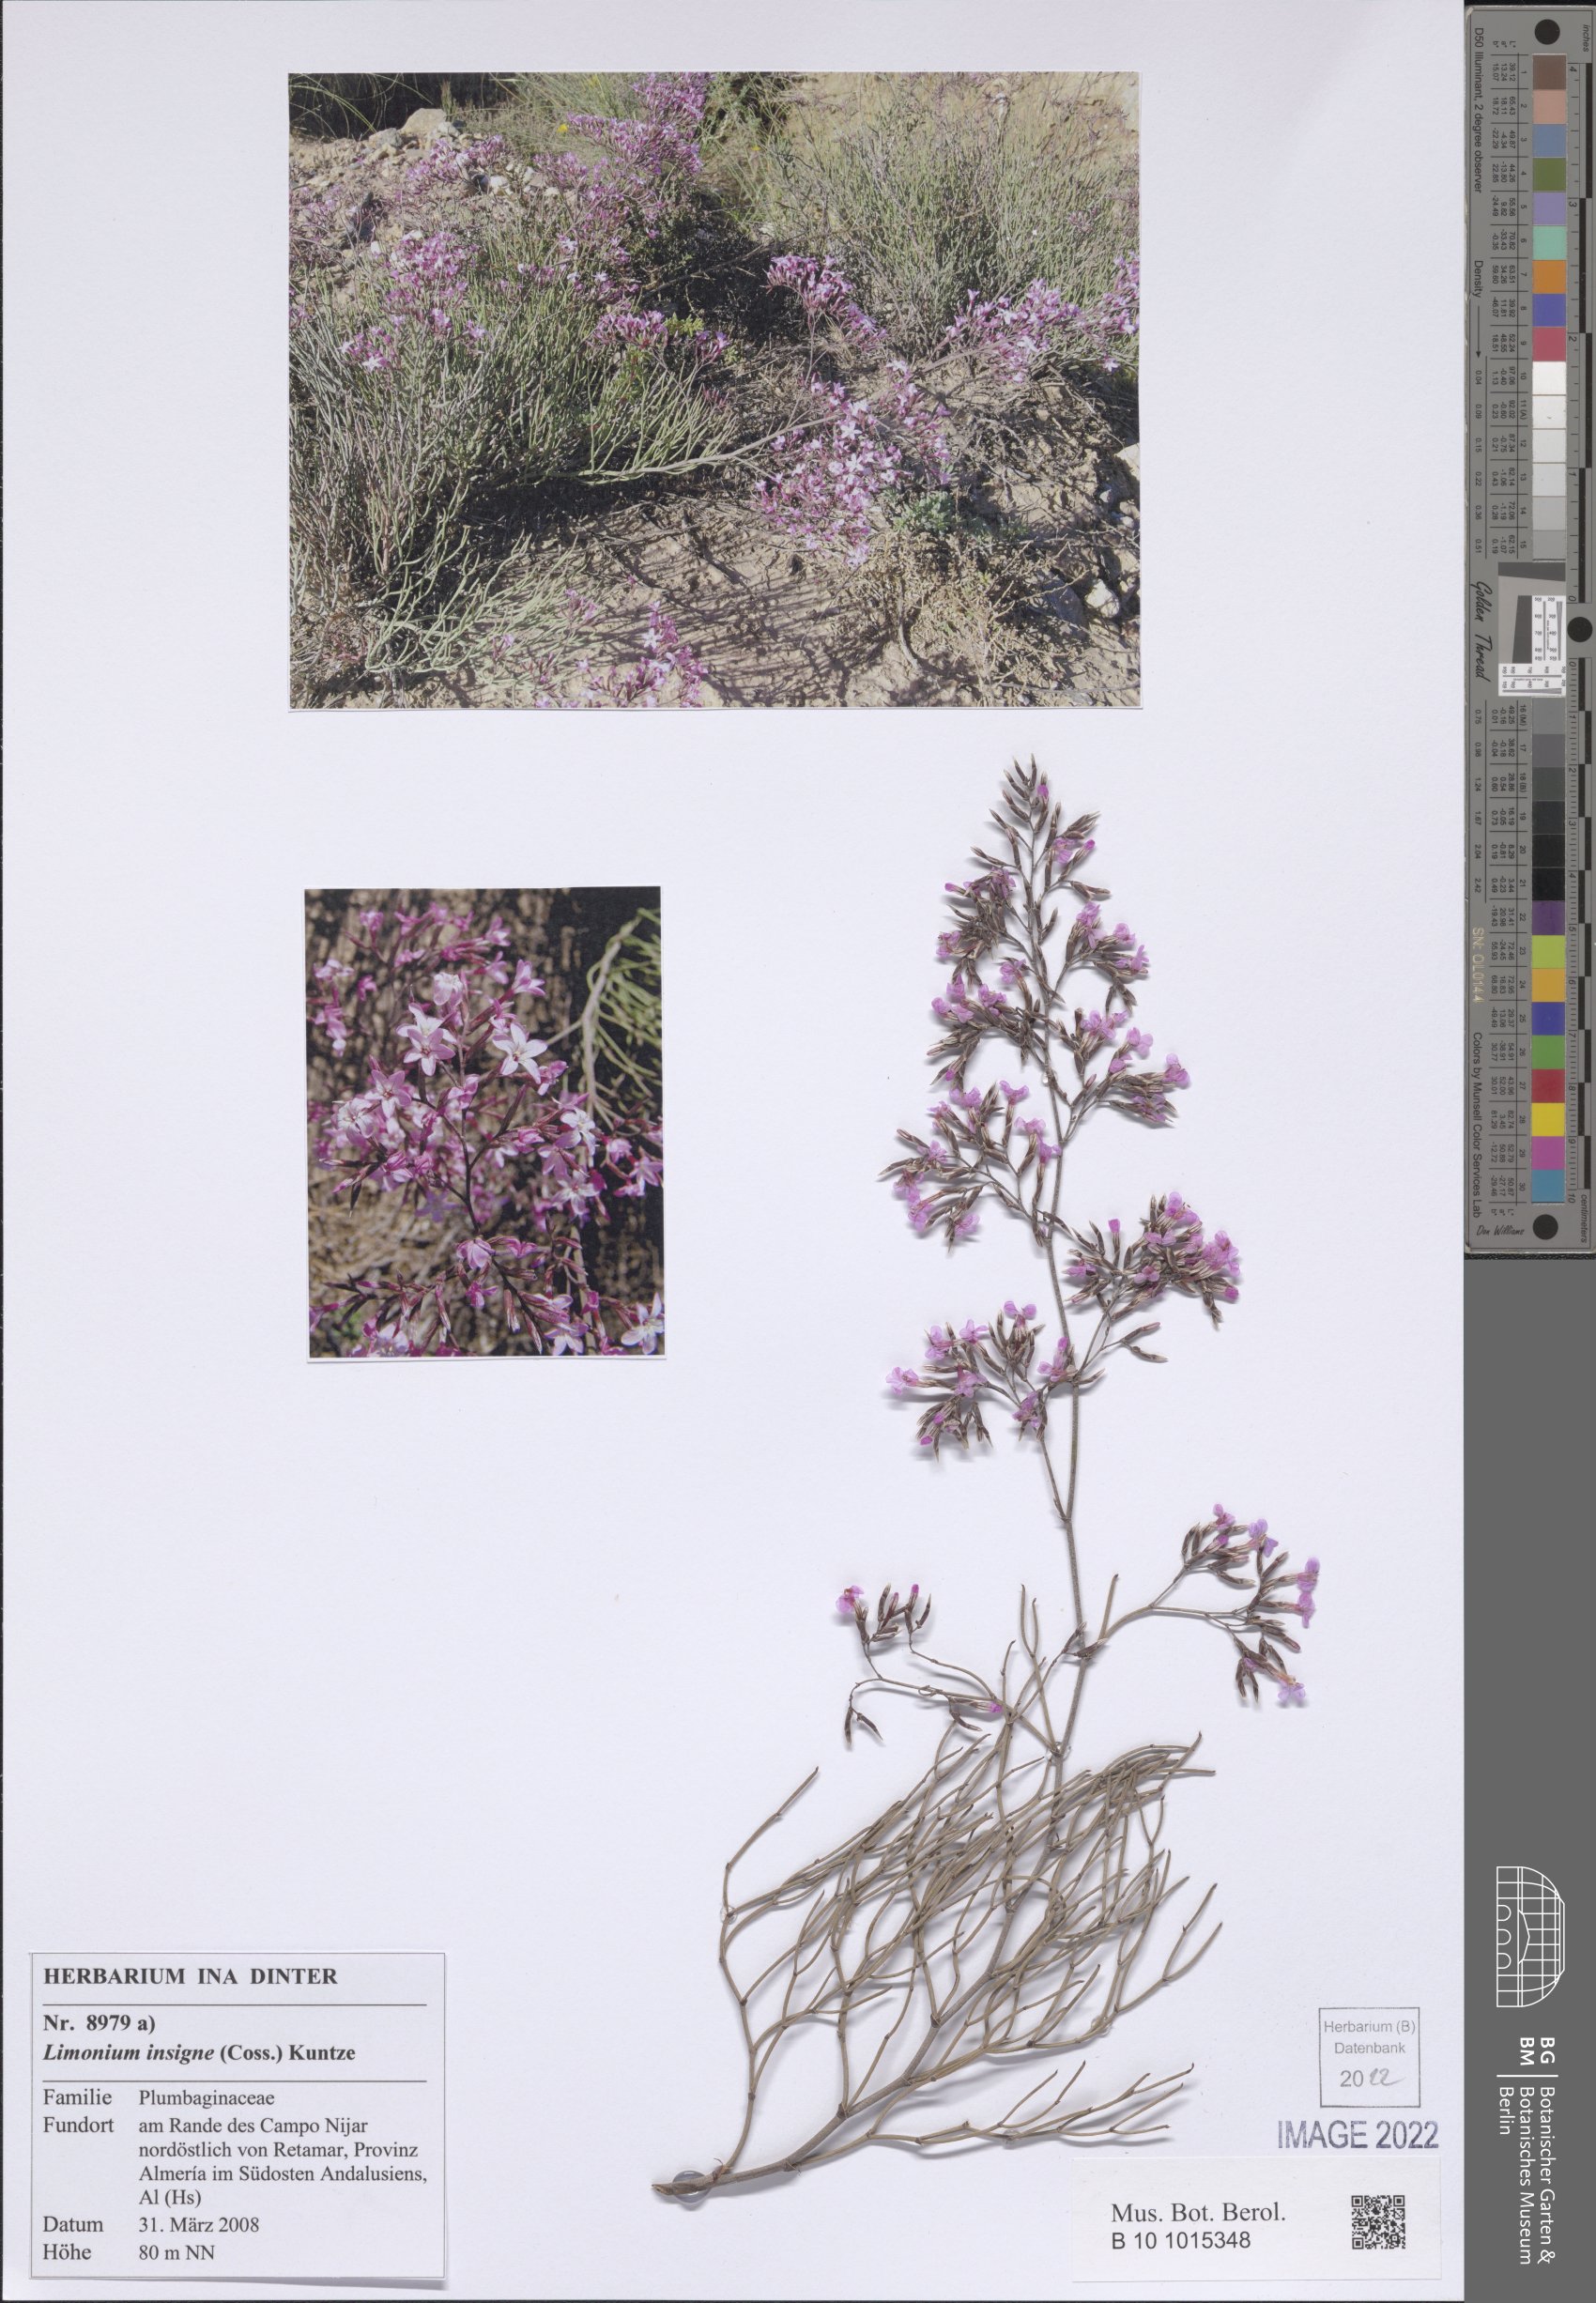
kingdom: Plantae
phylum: Tracheophyta
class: Magnoliopsida
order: Caryophyllales
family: Plumbaginaceae
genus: Limonium
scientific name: Limonium insigne
